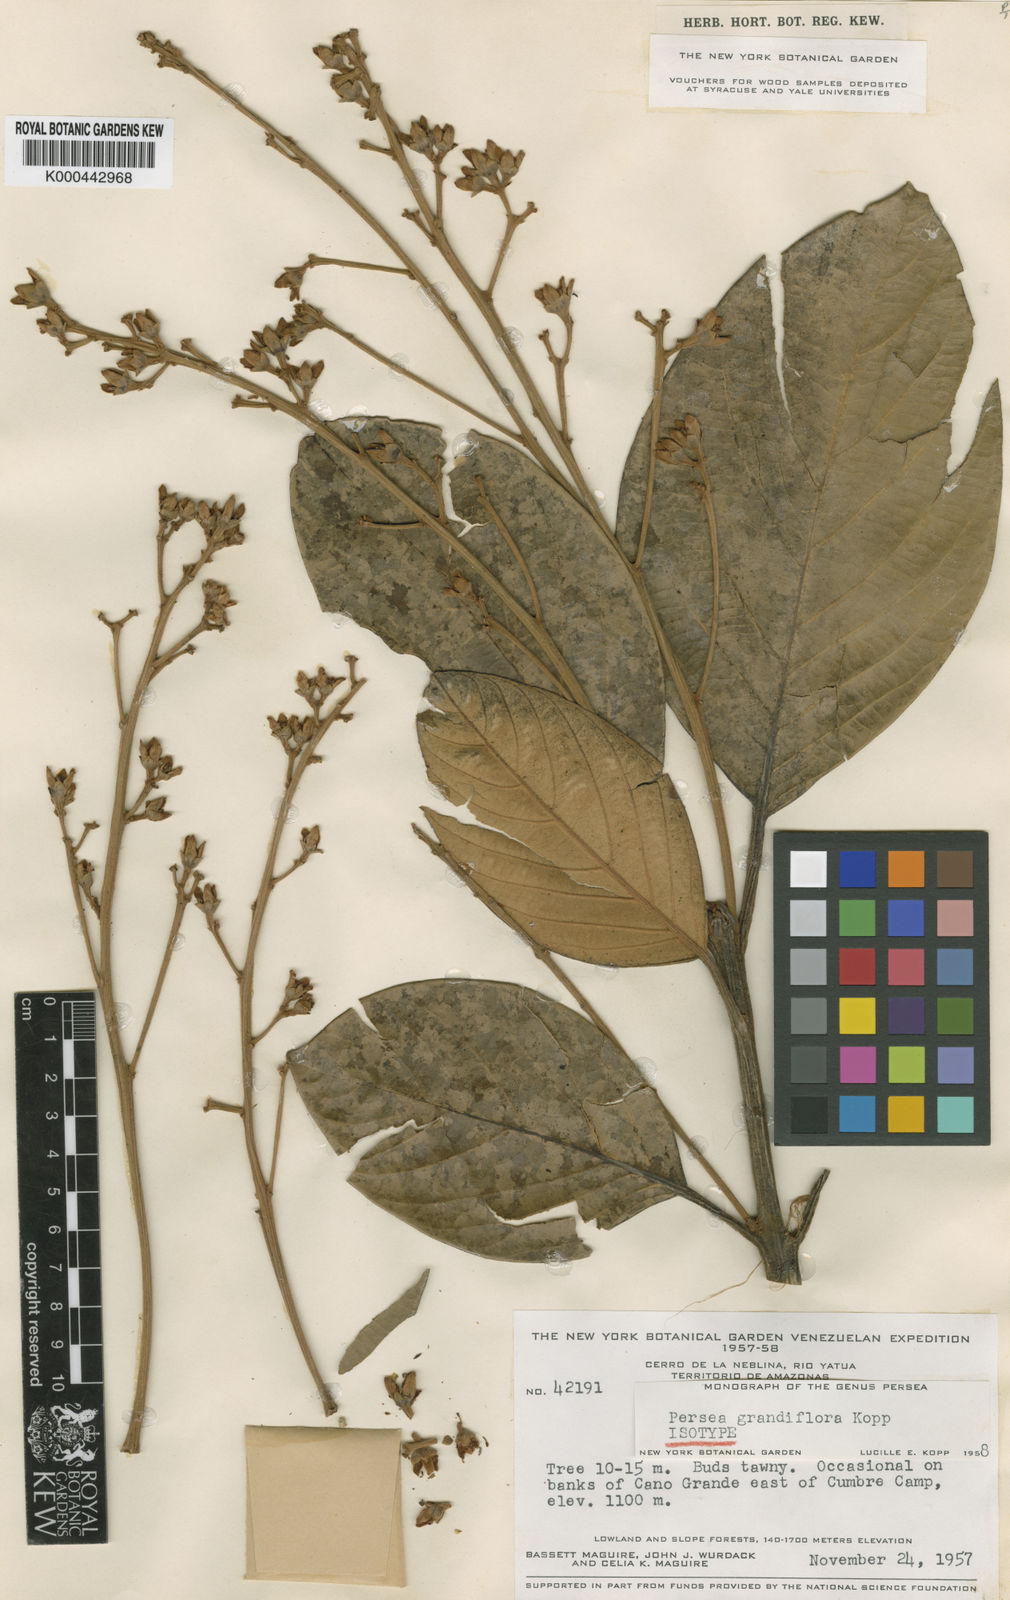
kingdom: Plantae
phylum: Tracheophyta
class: Magnoliopsida
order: Laurales
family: Lauraceae
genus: Persea
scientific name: Persea grandiflora
